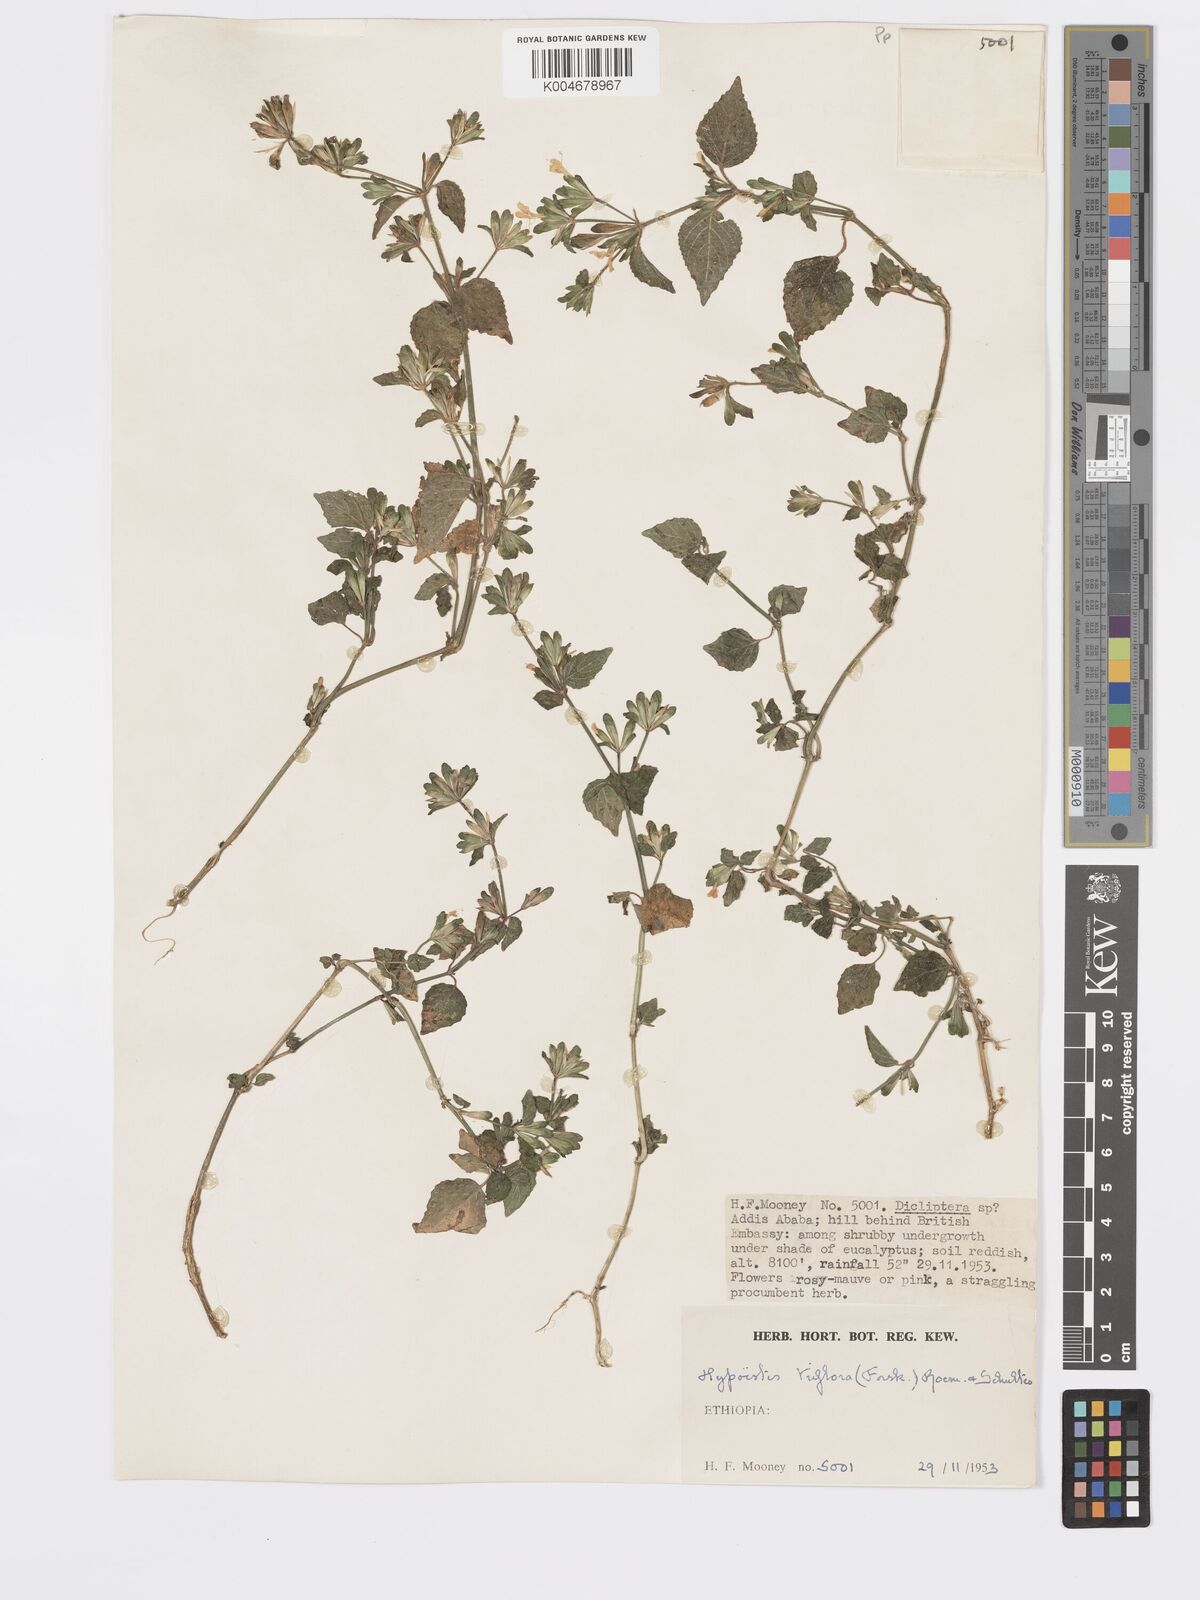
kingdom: Plantae
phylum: Tracheophyta
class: Magnoliopsida
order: Lamiales
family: Acanthaceae
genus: Hypoestes
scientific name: Hypoestes triflora
